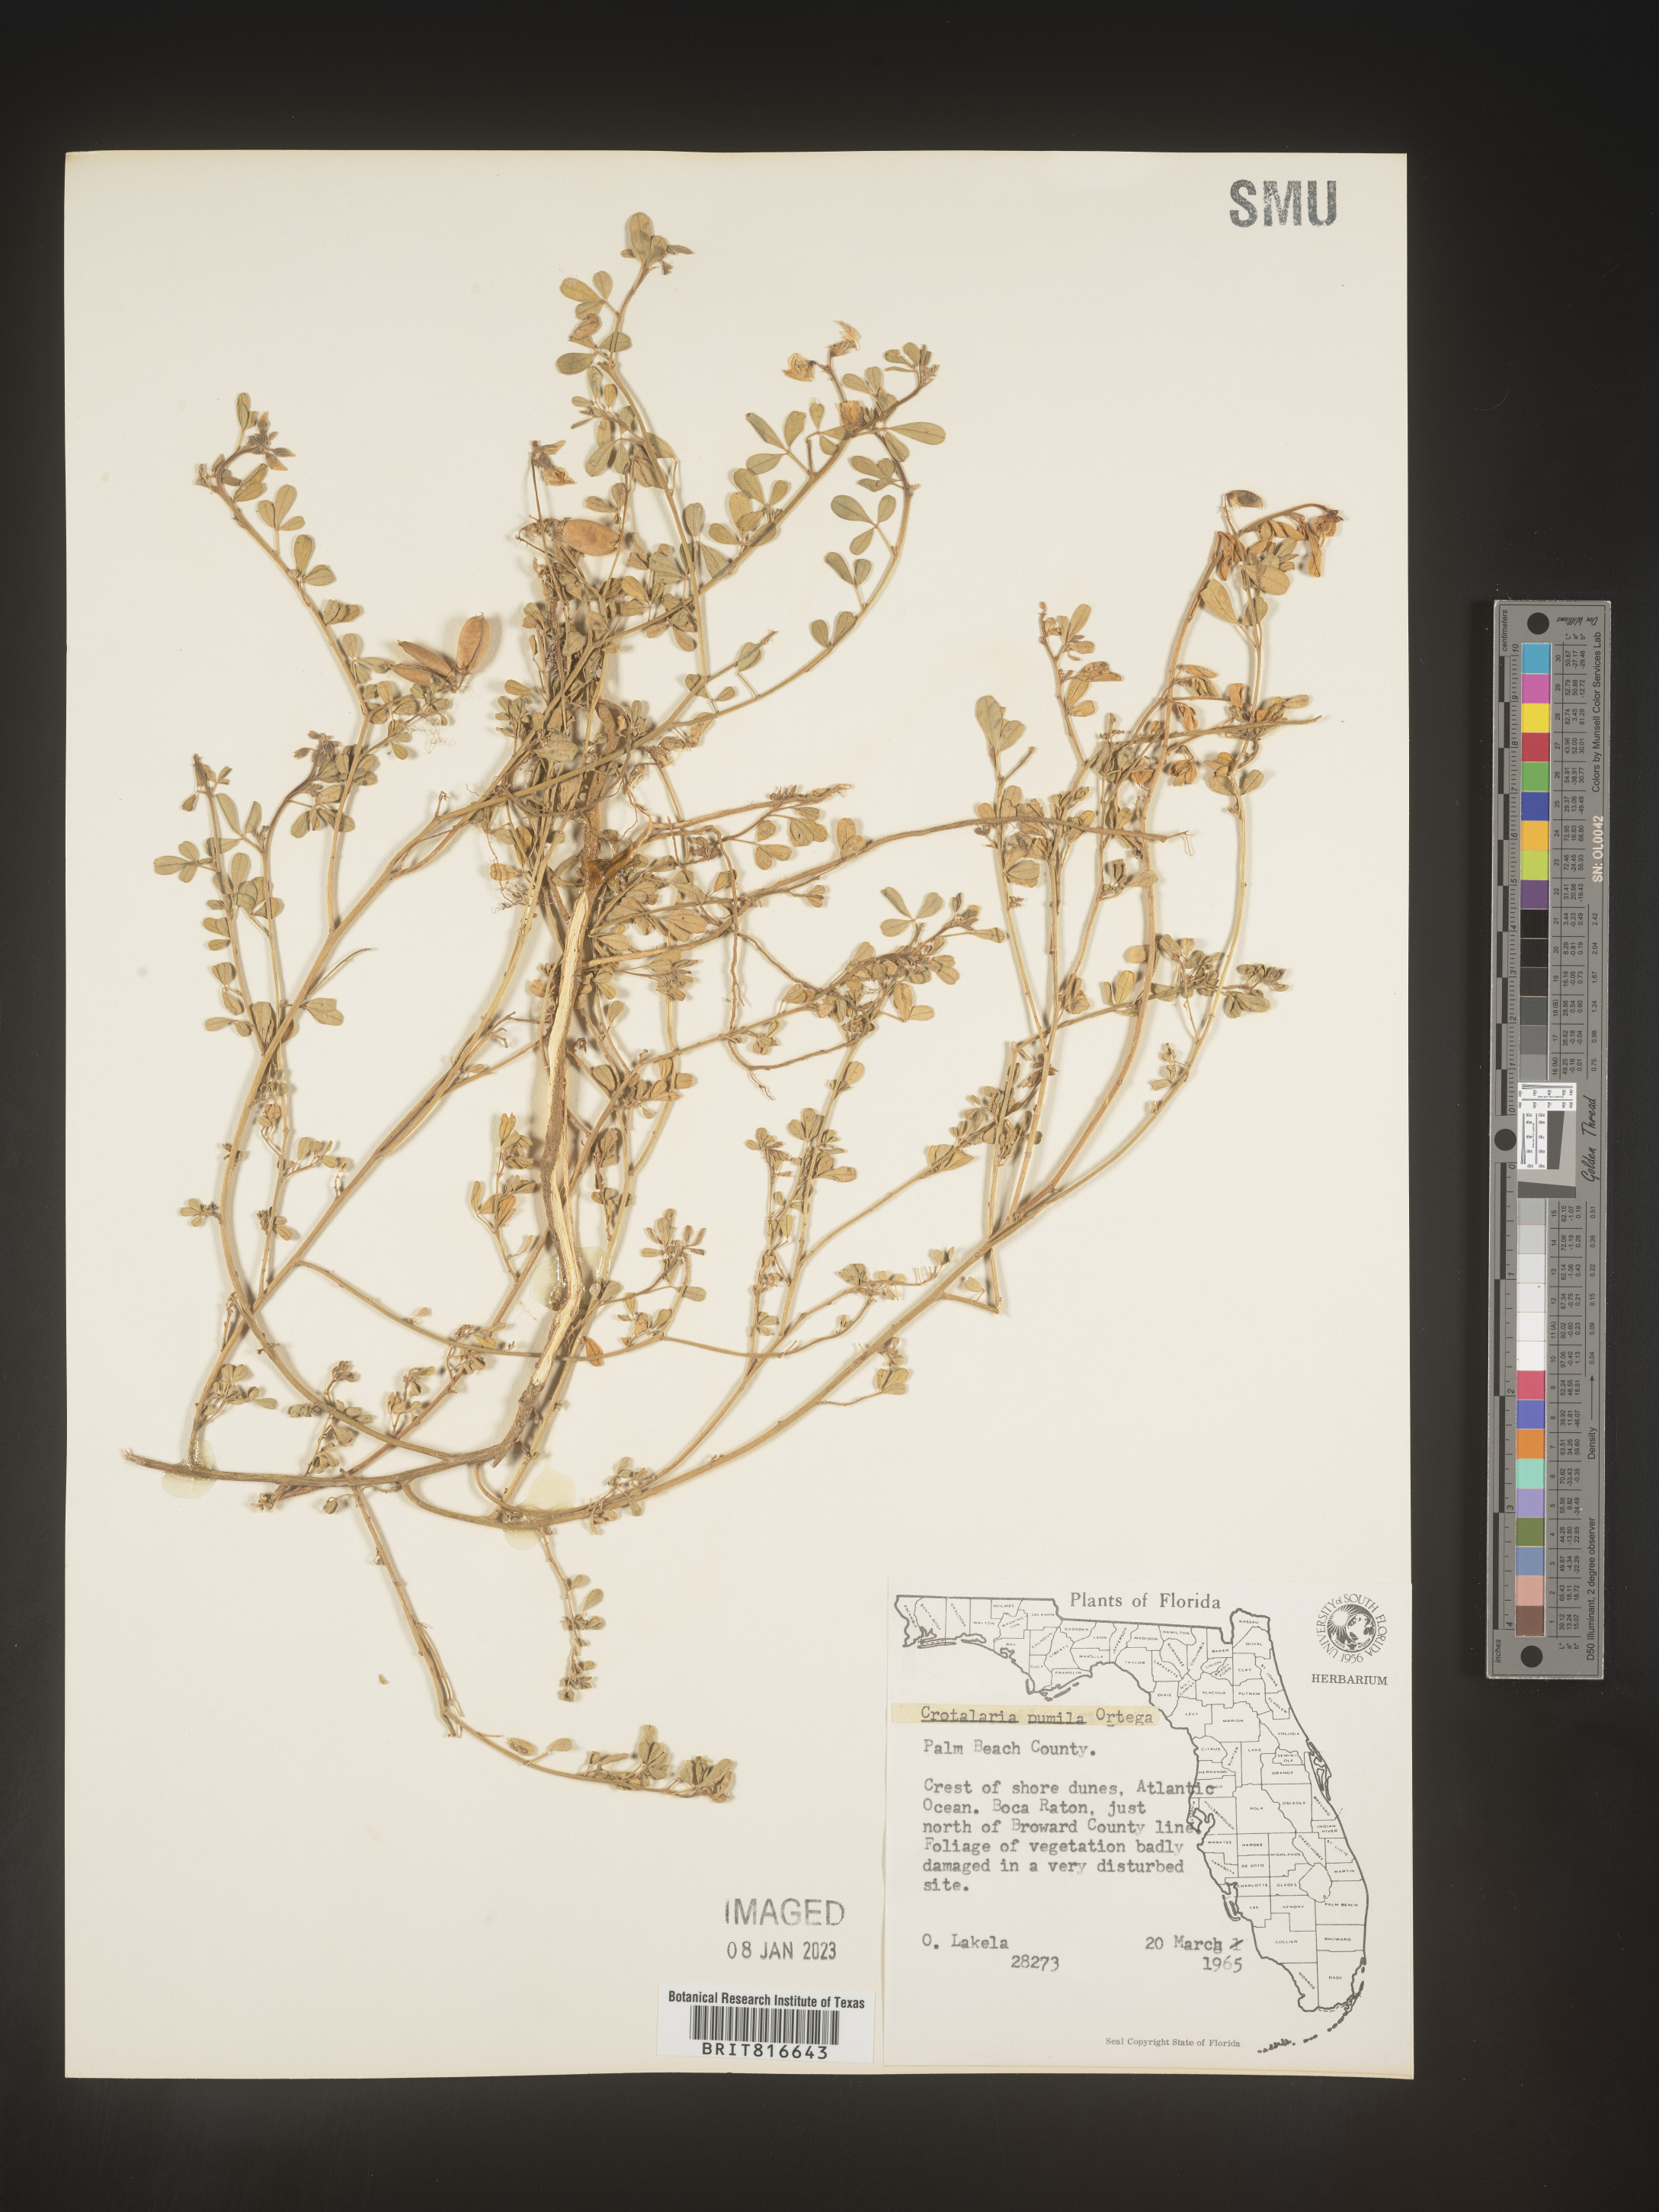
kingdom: Plantae
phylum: Tracheophyta
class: Magnoliopsida
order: Fabales
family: Fabaceae
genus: Crotalaria
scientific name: Crotalaria pumila
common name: Low rattlebox
